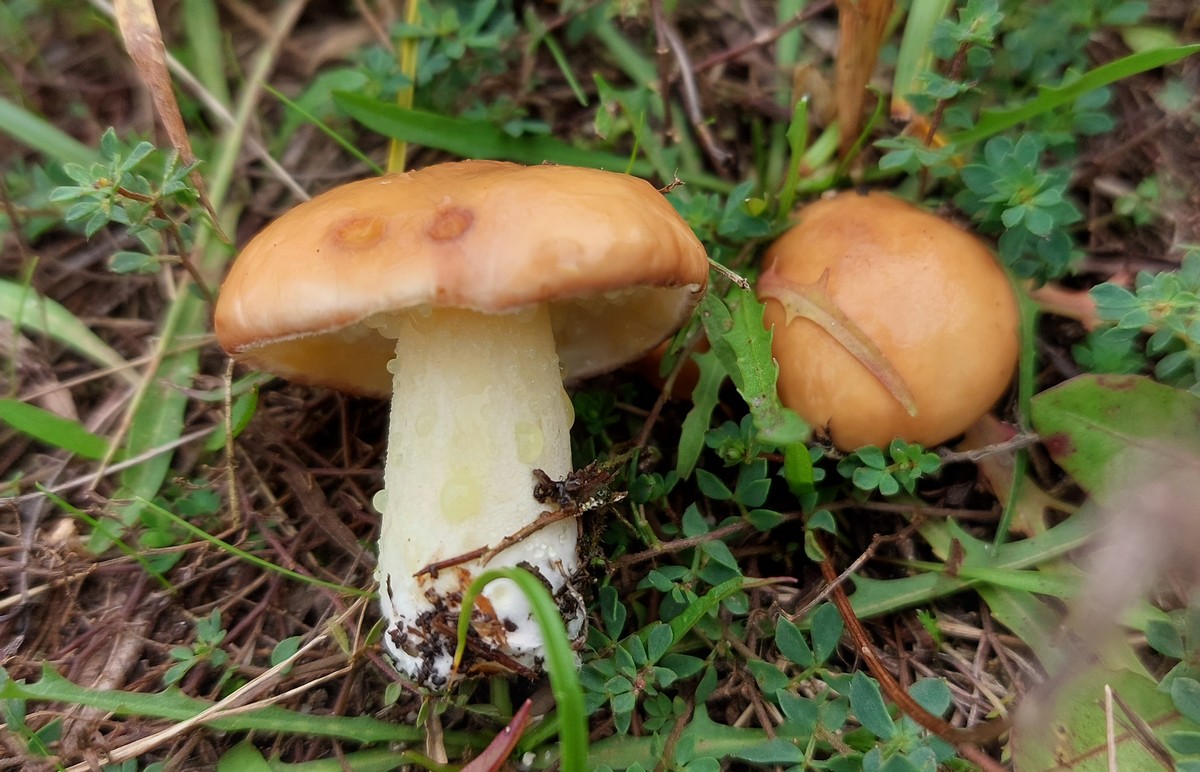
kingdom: Fungi
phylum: Basidiomycota
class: Agaricomycetes
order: Boletales
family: Suillaceae
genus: Suillus
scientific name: Suillus granulatus
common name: kornet slimrørhat
